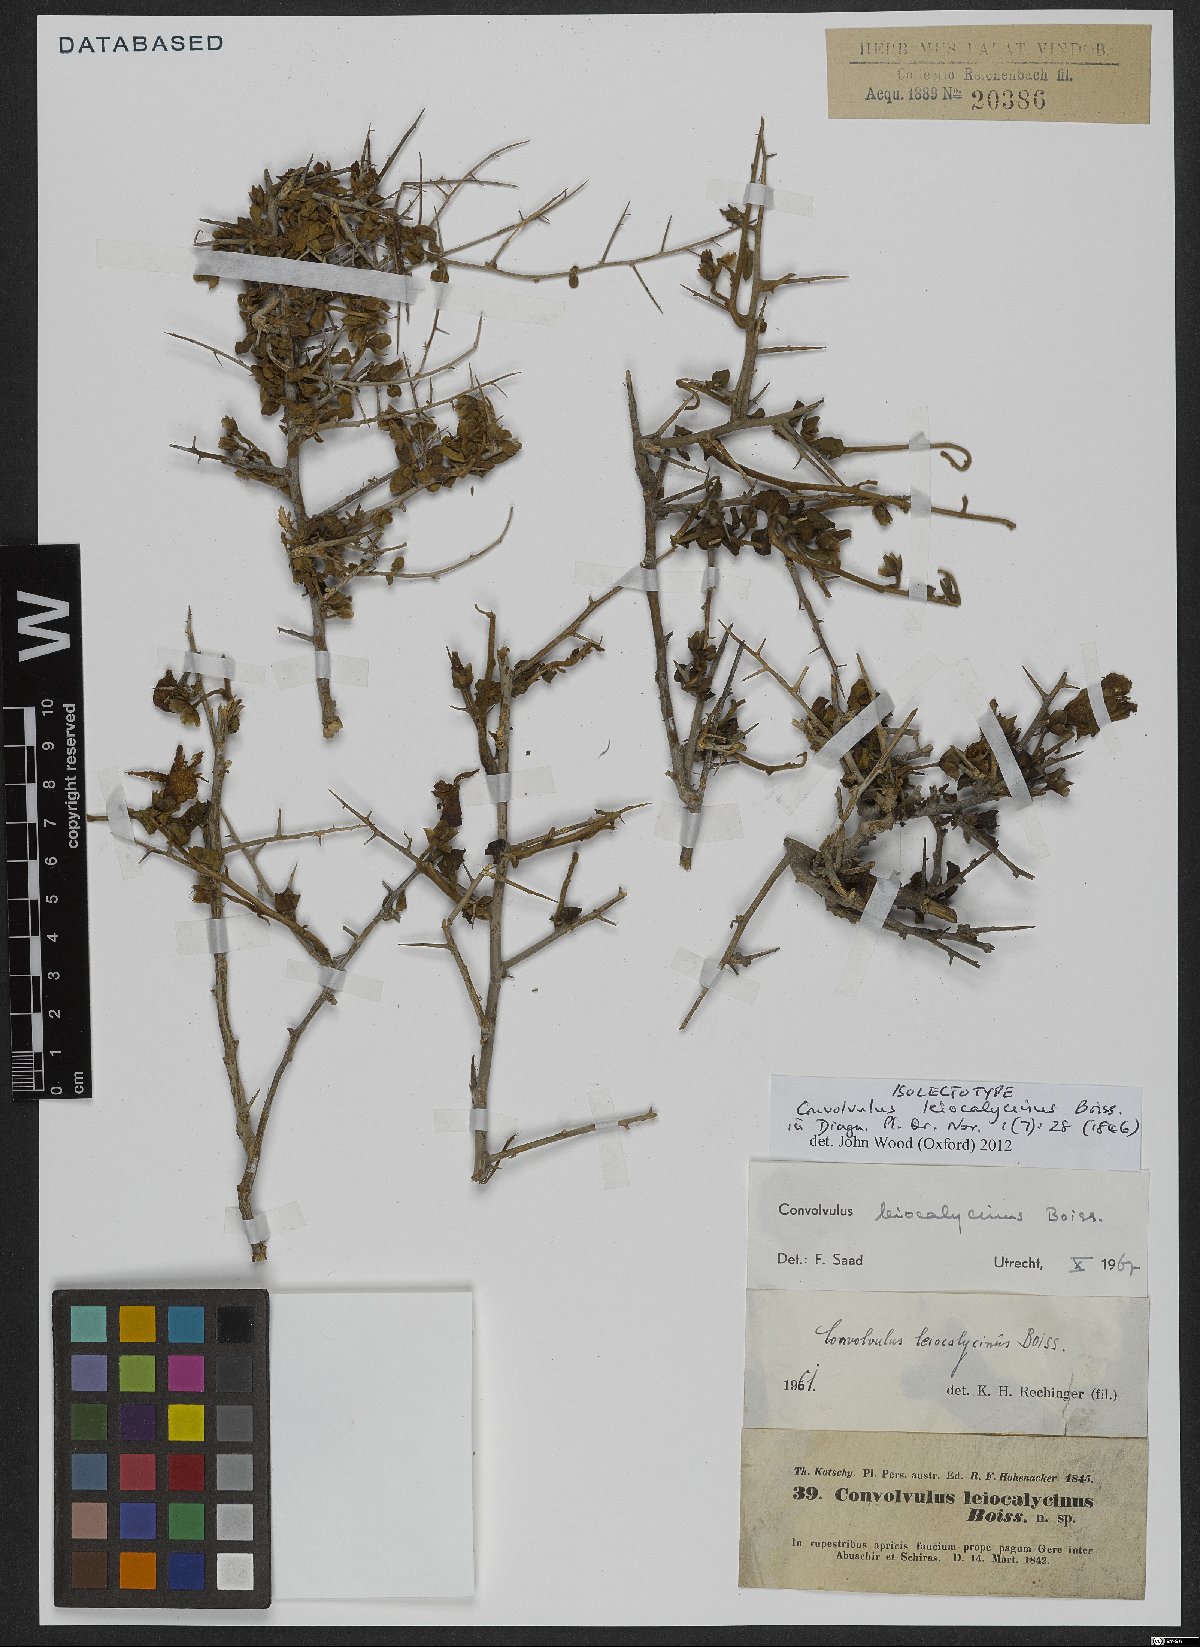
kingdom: Plantae
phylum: Tracheophyta
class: Magnoliopsida
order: Solanales
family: Convolvulaceae
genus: Convolvulus
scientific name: Convolvulus leiocalycinus
